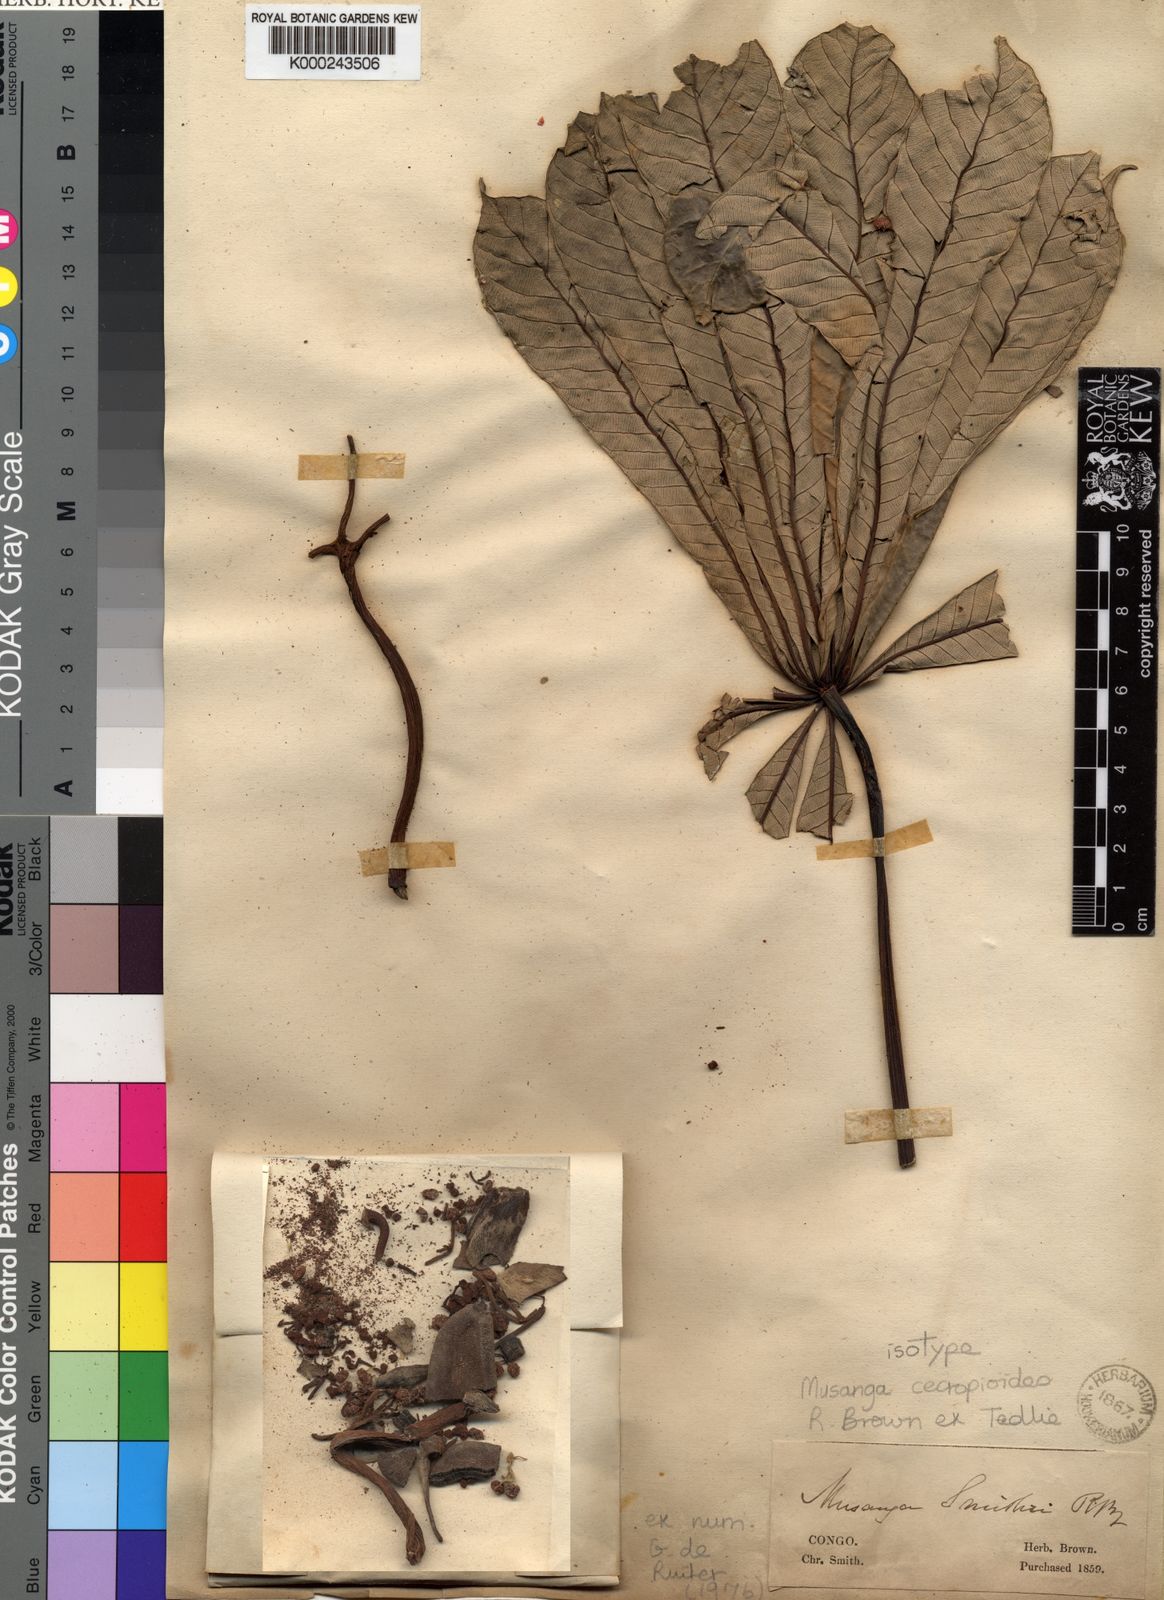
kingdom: Plantae
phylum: Tracheophyta
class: Magnoliopsida
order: Rosales
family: Urticaceae
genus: Musanga
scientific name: Musanga
